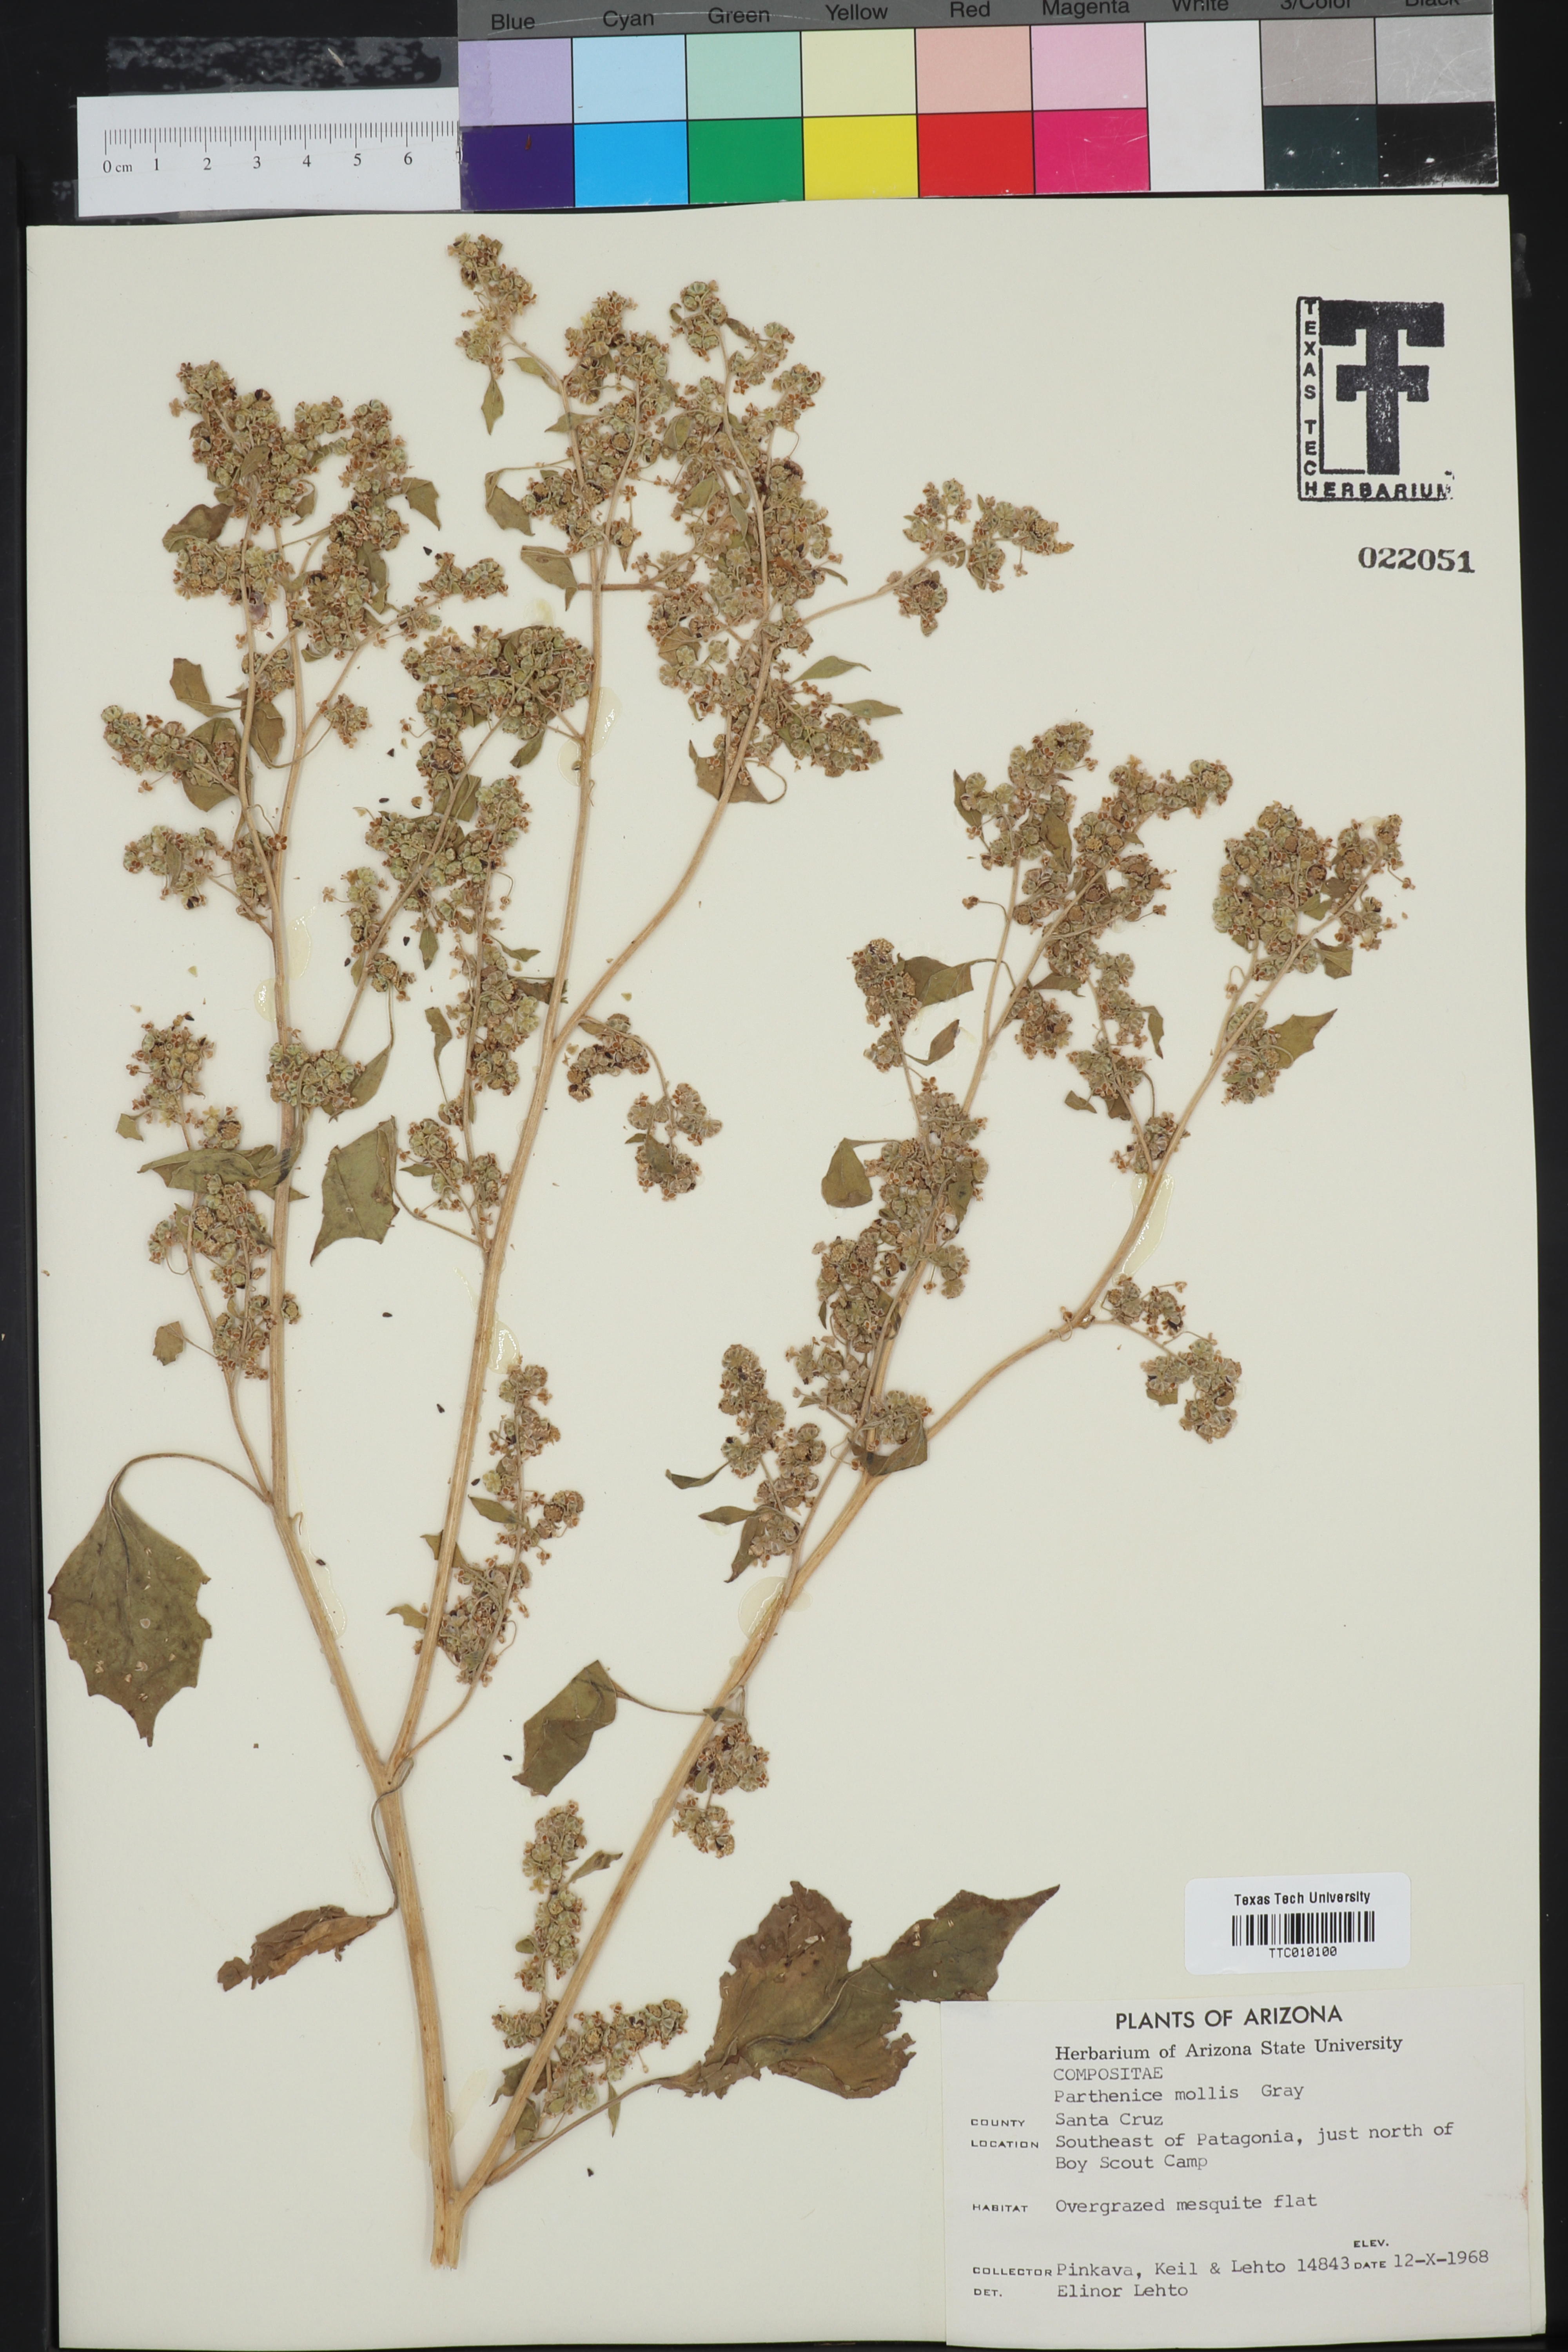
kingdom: Plantae
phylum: Tracheophyta
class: Magnoliopsida
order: Asterales
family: Asteraceae
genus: Parthenice
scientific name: Parthenice mollis
